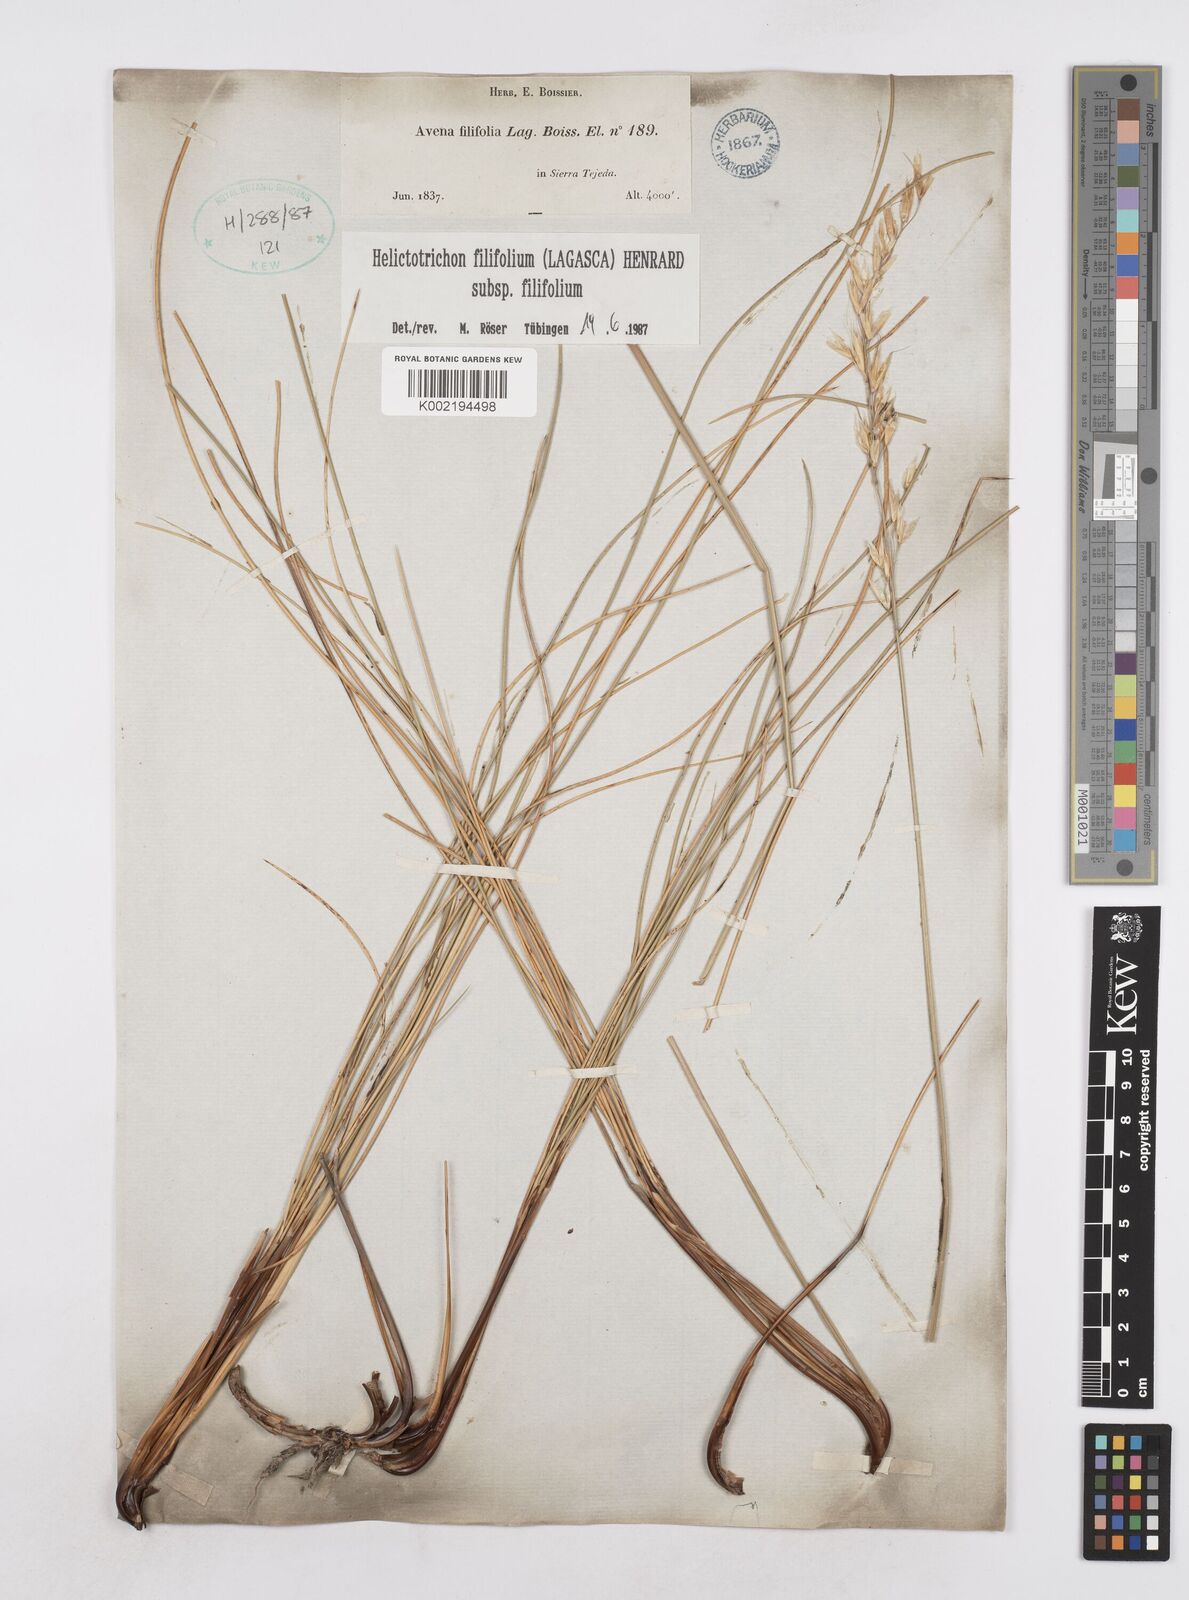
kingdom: Plantae
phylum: Tracheophyta
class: Liliopsida
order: Poales
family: Poaceae
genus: Helictotrichon
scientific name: Helictotrichon filifolium
